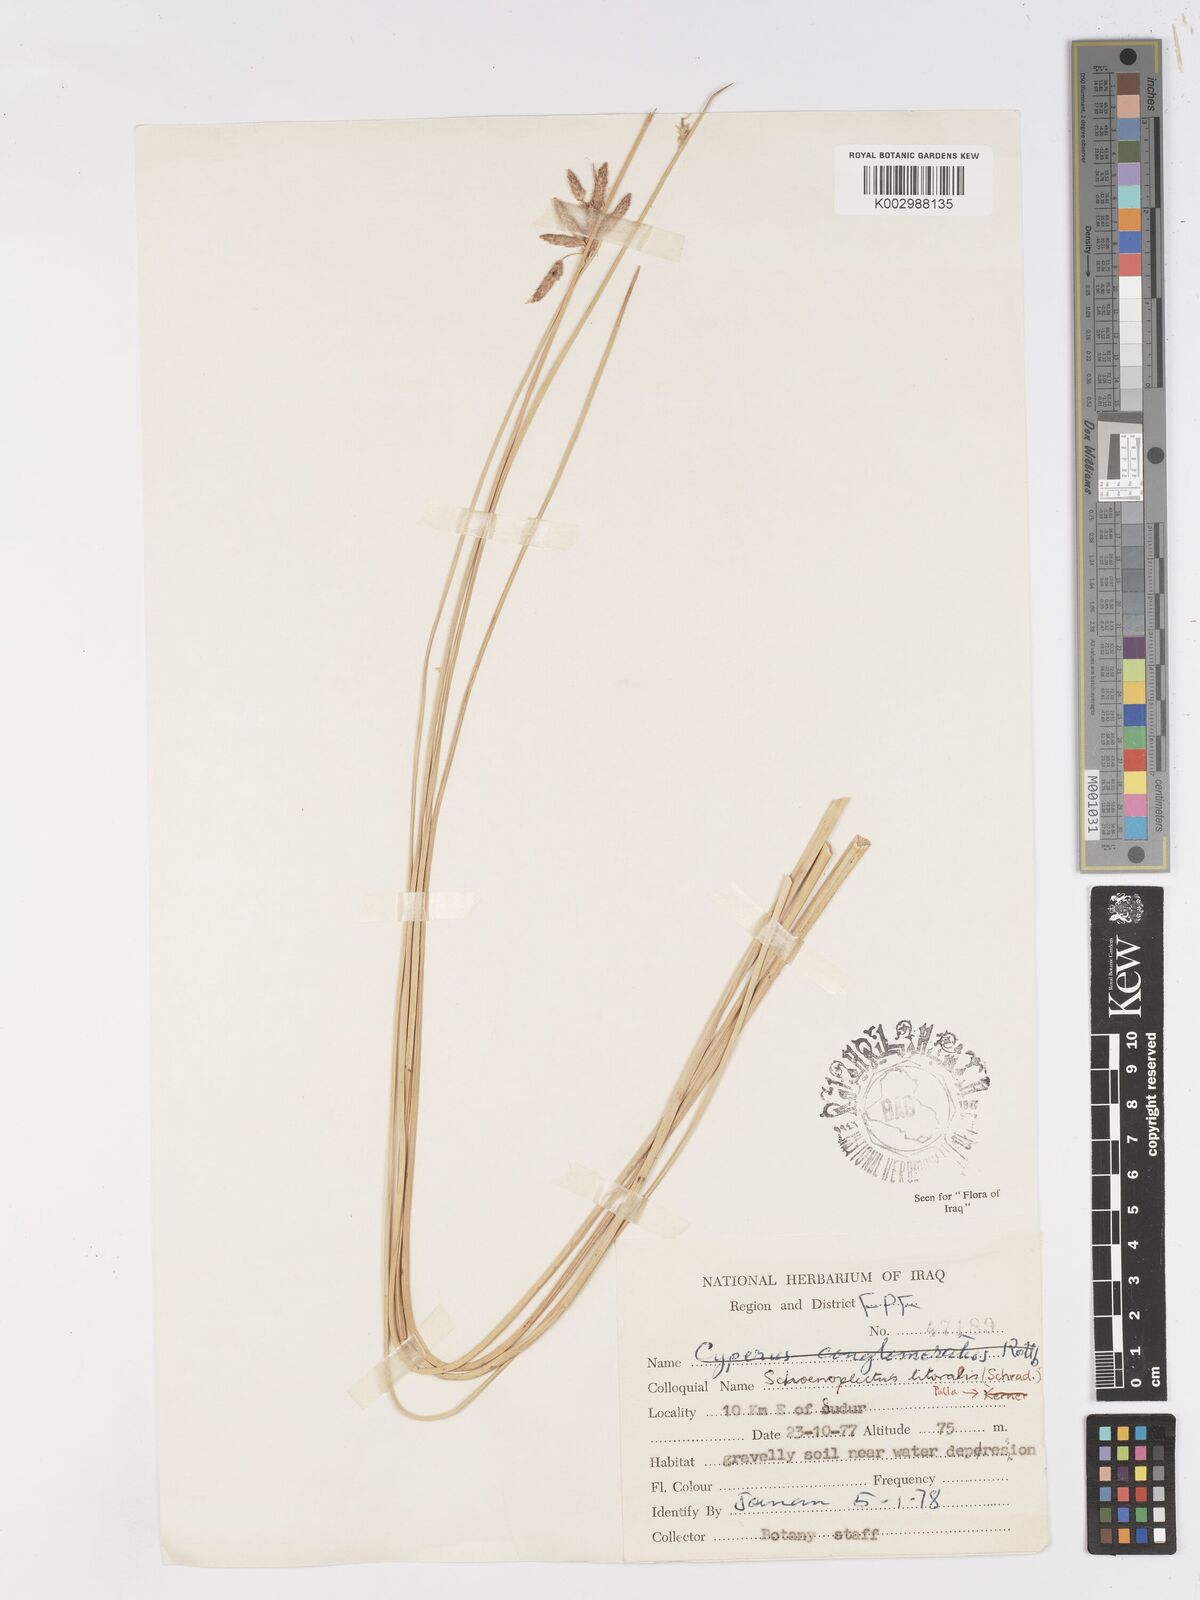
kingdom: Plantae
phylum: Tracheophyta
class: Liliopsida
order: Poales
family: Cyperaceae
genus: Schoenoplectus
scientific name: Schoenoplectus litoralis
